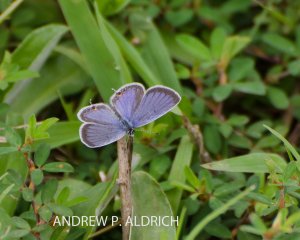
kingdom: Animalia
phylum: Arthropoda
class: Insecta
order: Lepidoptera
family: Lycaenidae
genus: Elkalyce
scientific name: Elkalyce comyntas
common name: Eastern Tailed-Blue
